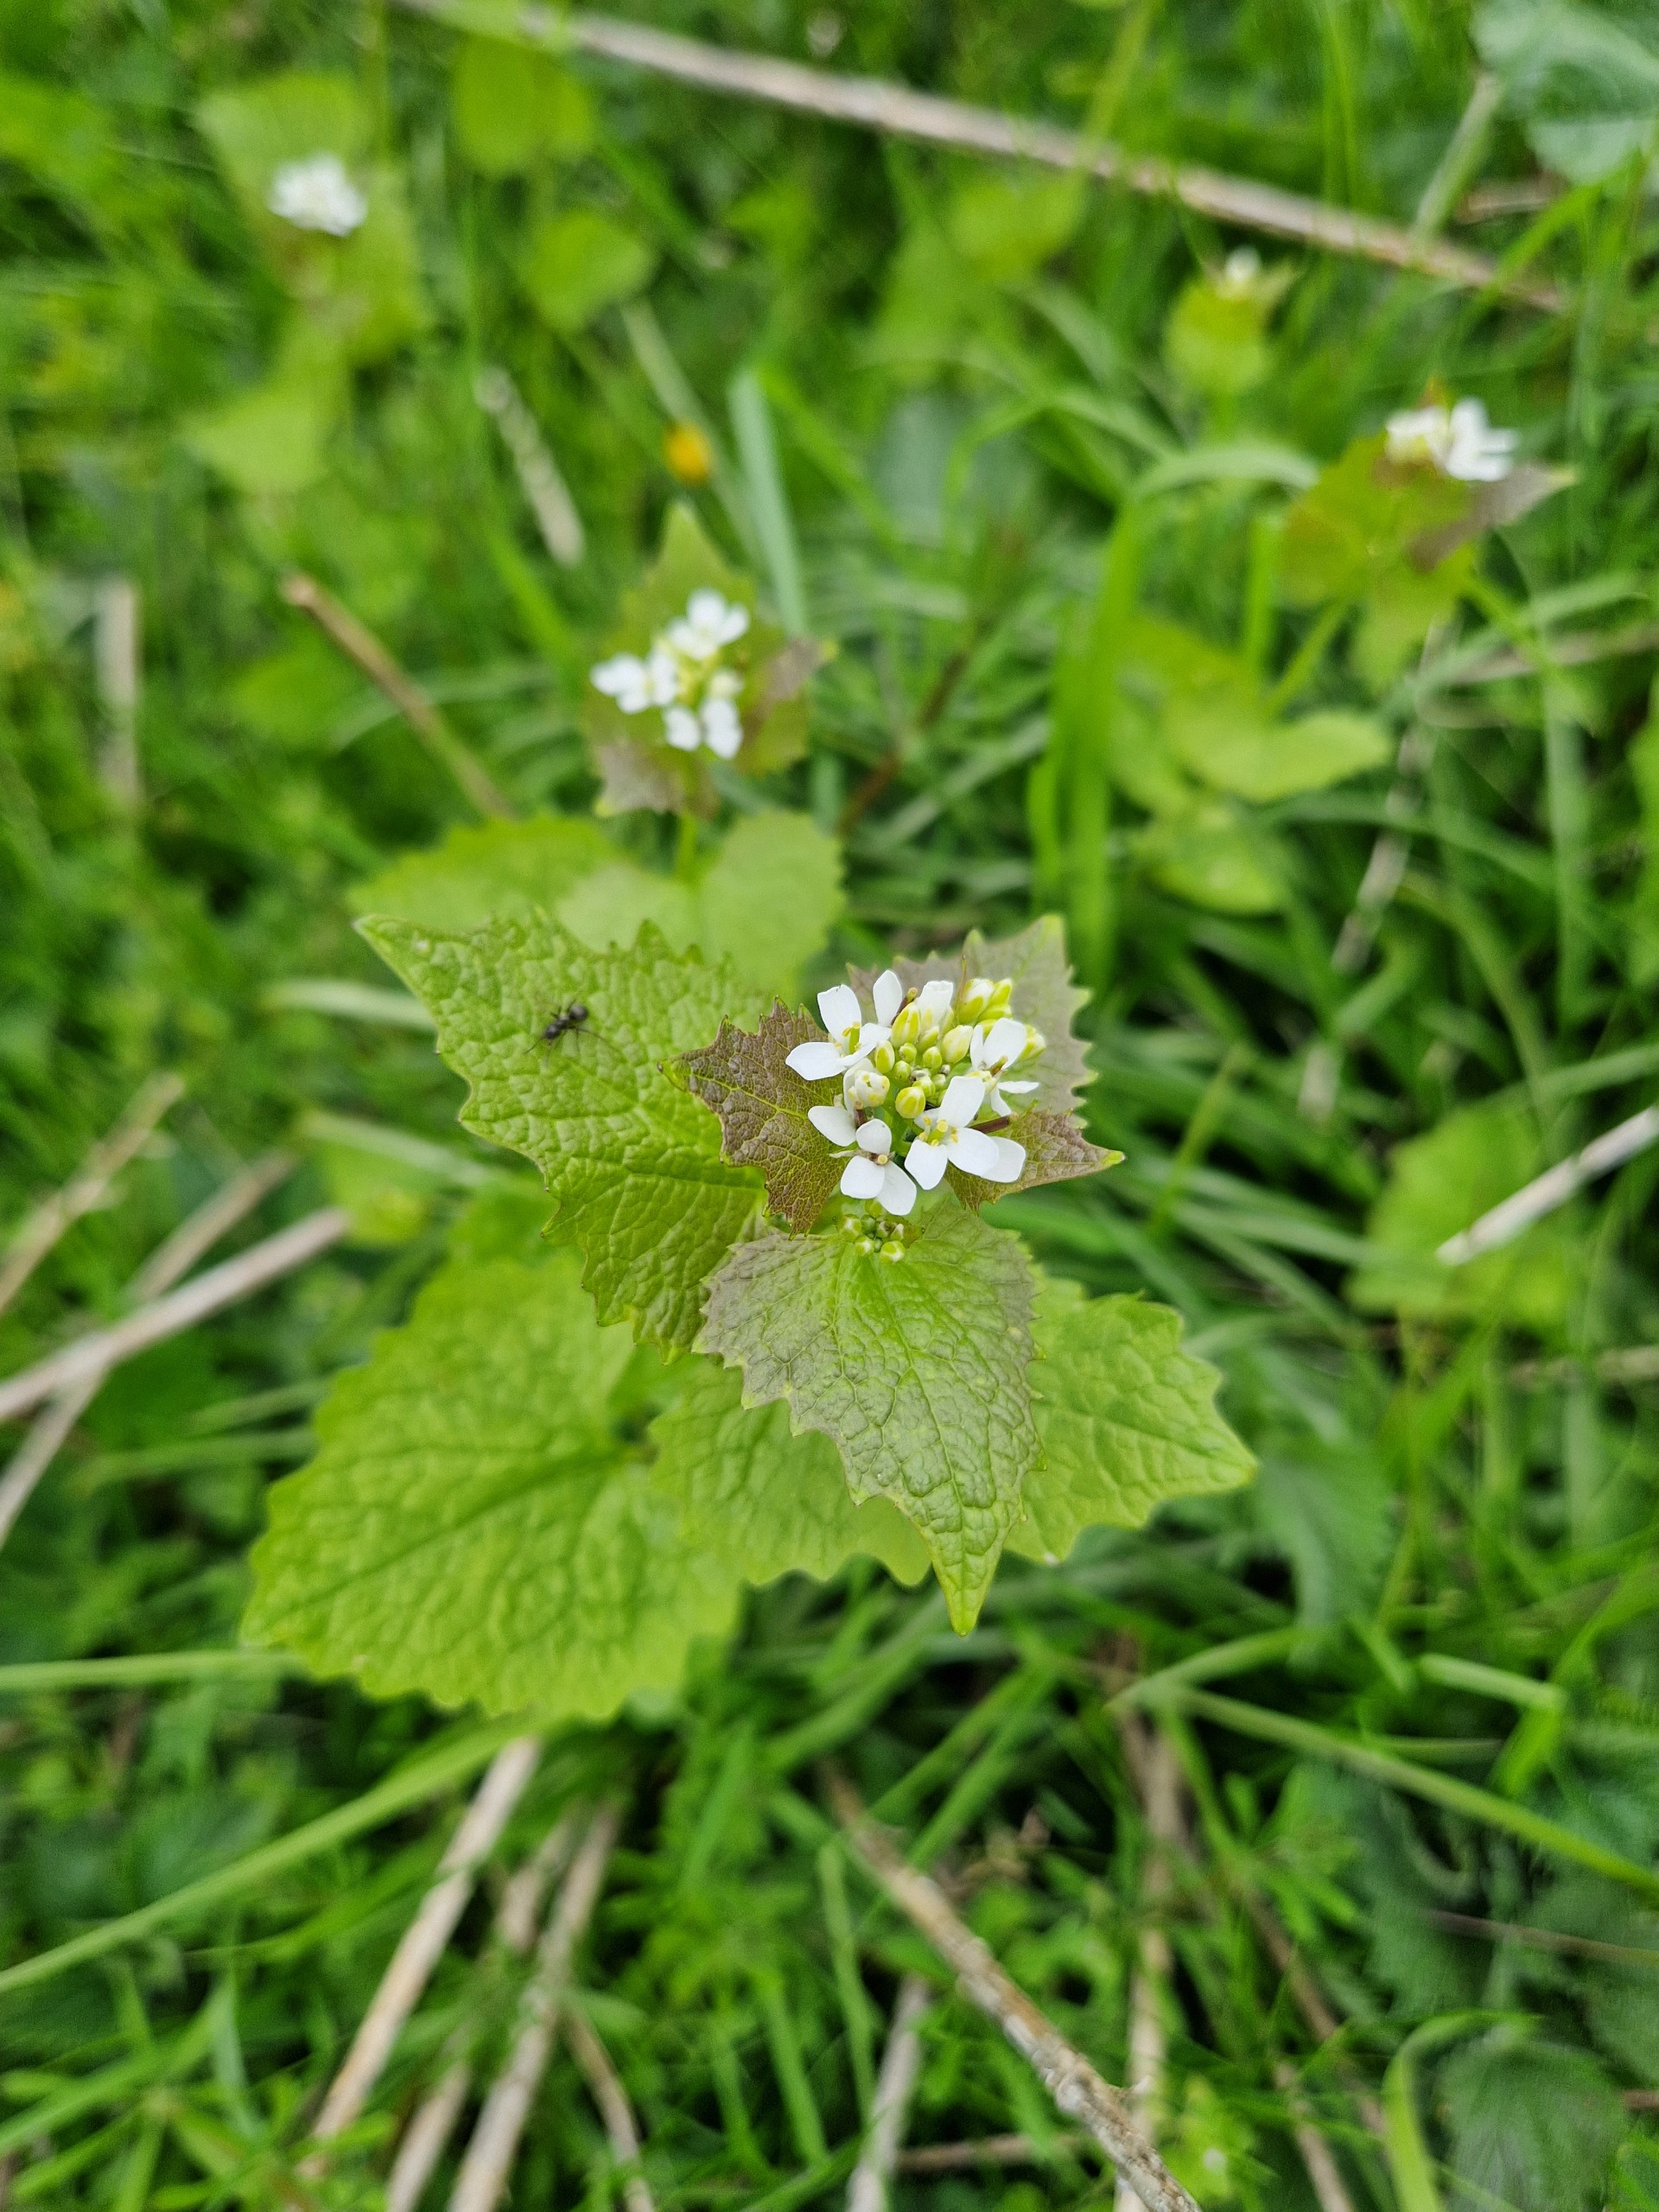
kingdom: Plantae
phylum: Tracheophyta
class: Magnoliopsida
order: Brassicales
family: Brassicaceae
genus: Alliaria
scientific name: Alliaria petiolata
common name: Løgkarse
